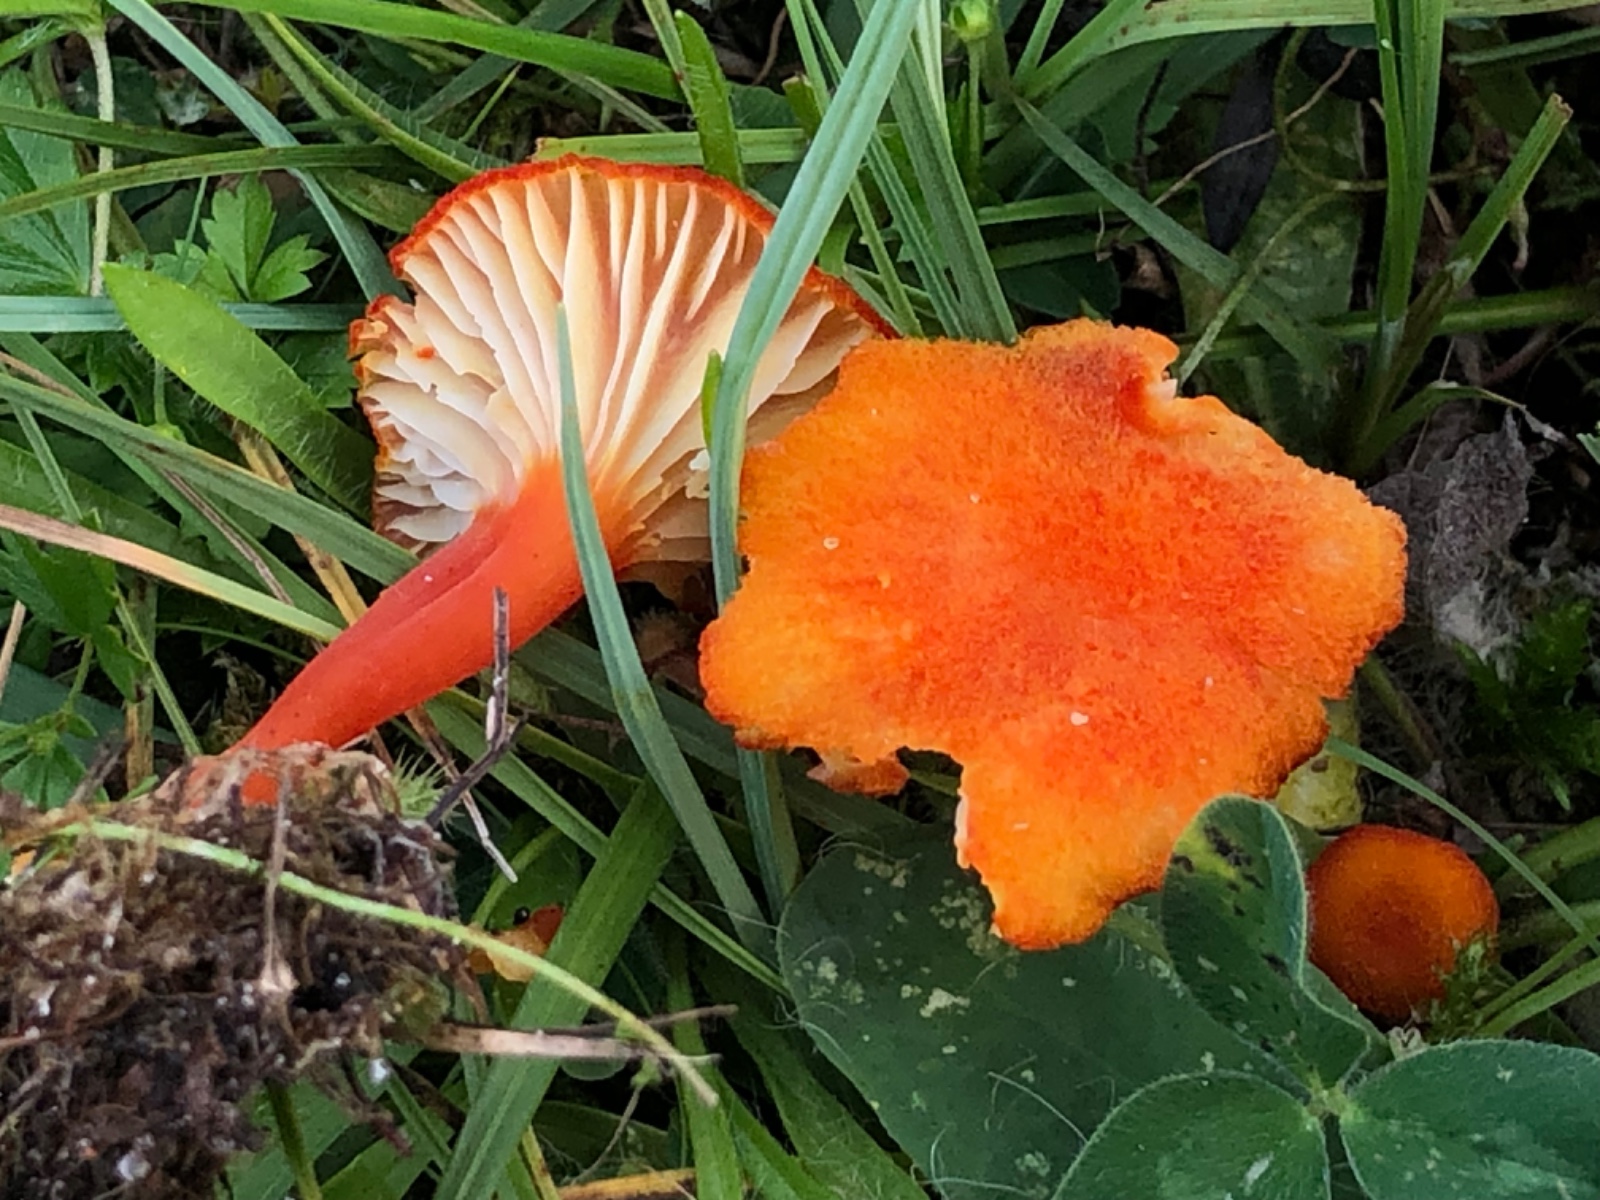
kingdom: Fungi
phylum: Basidiomycota
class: Agaricomycetes
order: Agaricales
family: Hygrophoraceae
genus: Hygrocybe
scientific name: Hygrocybe
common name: vokshat
